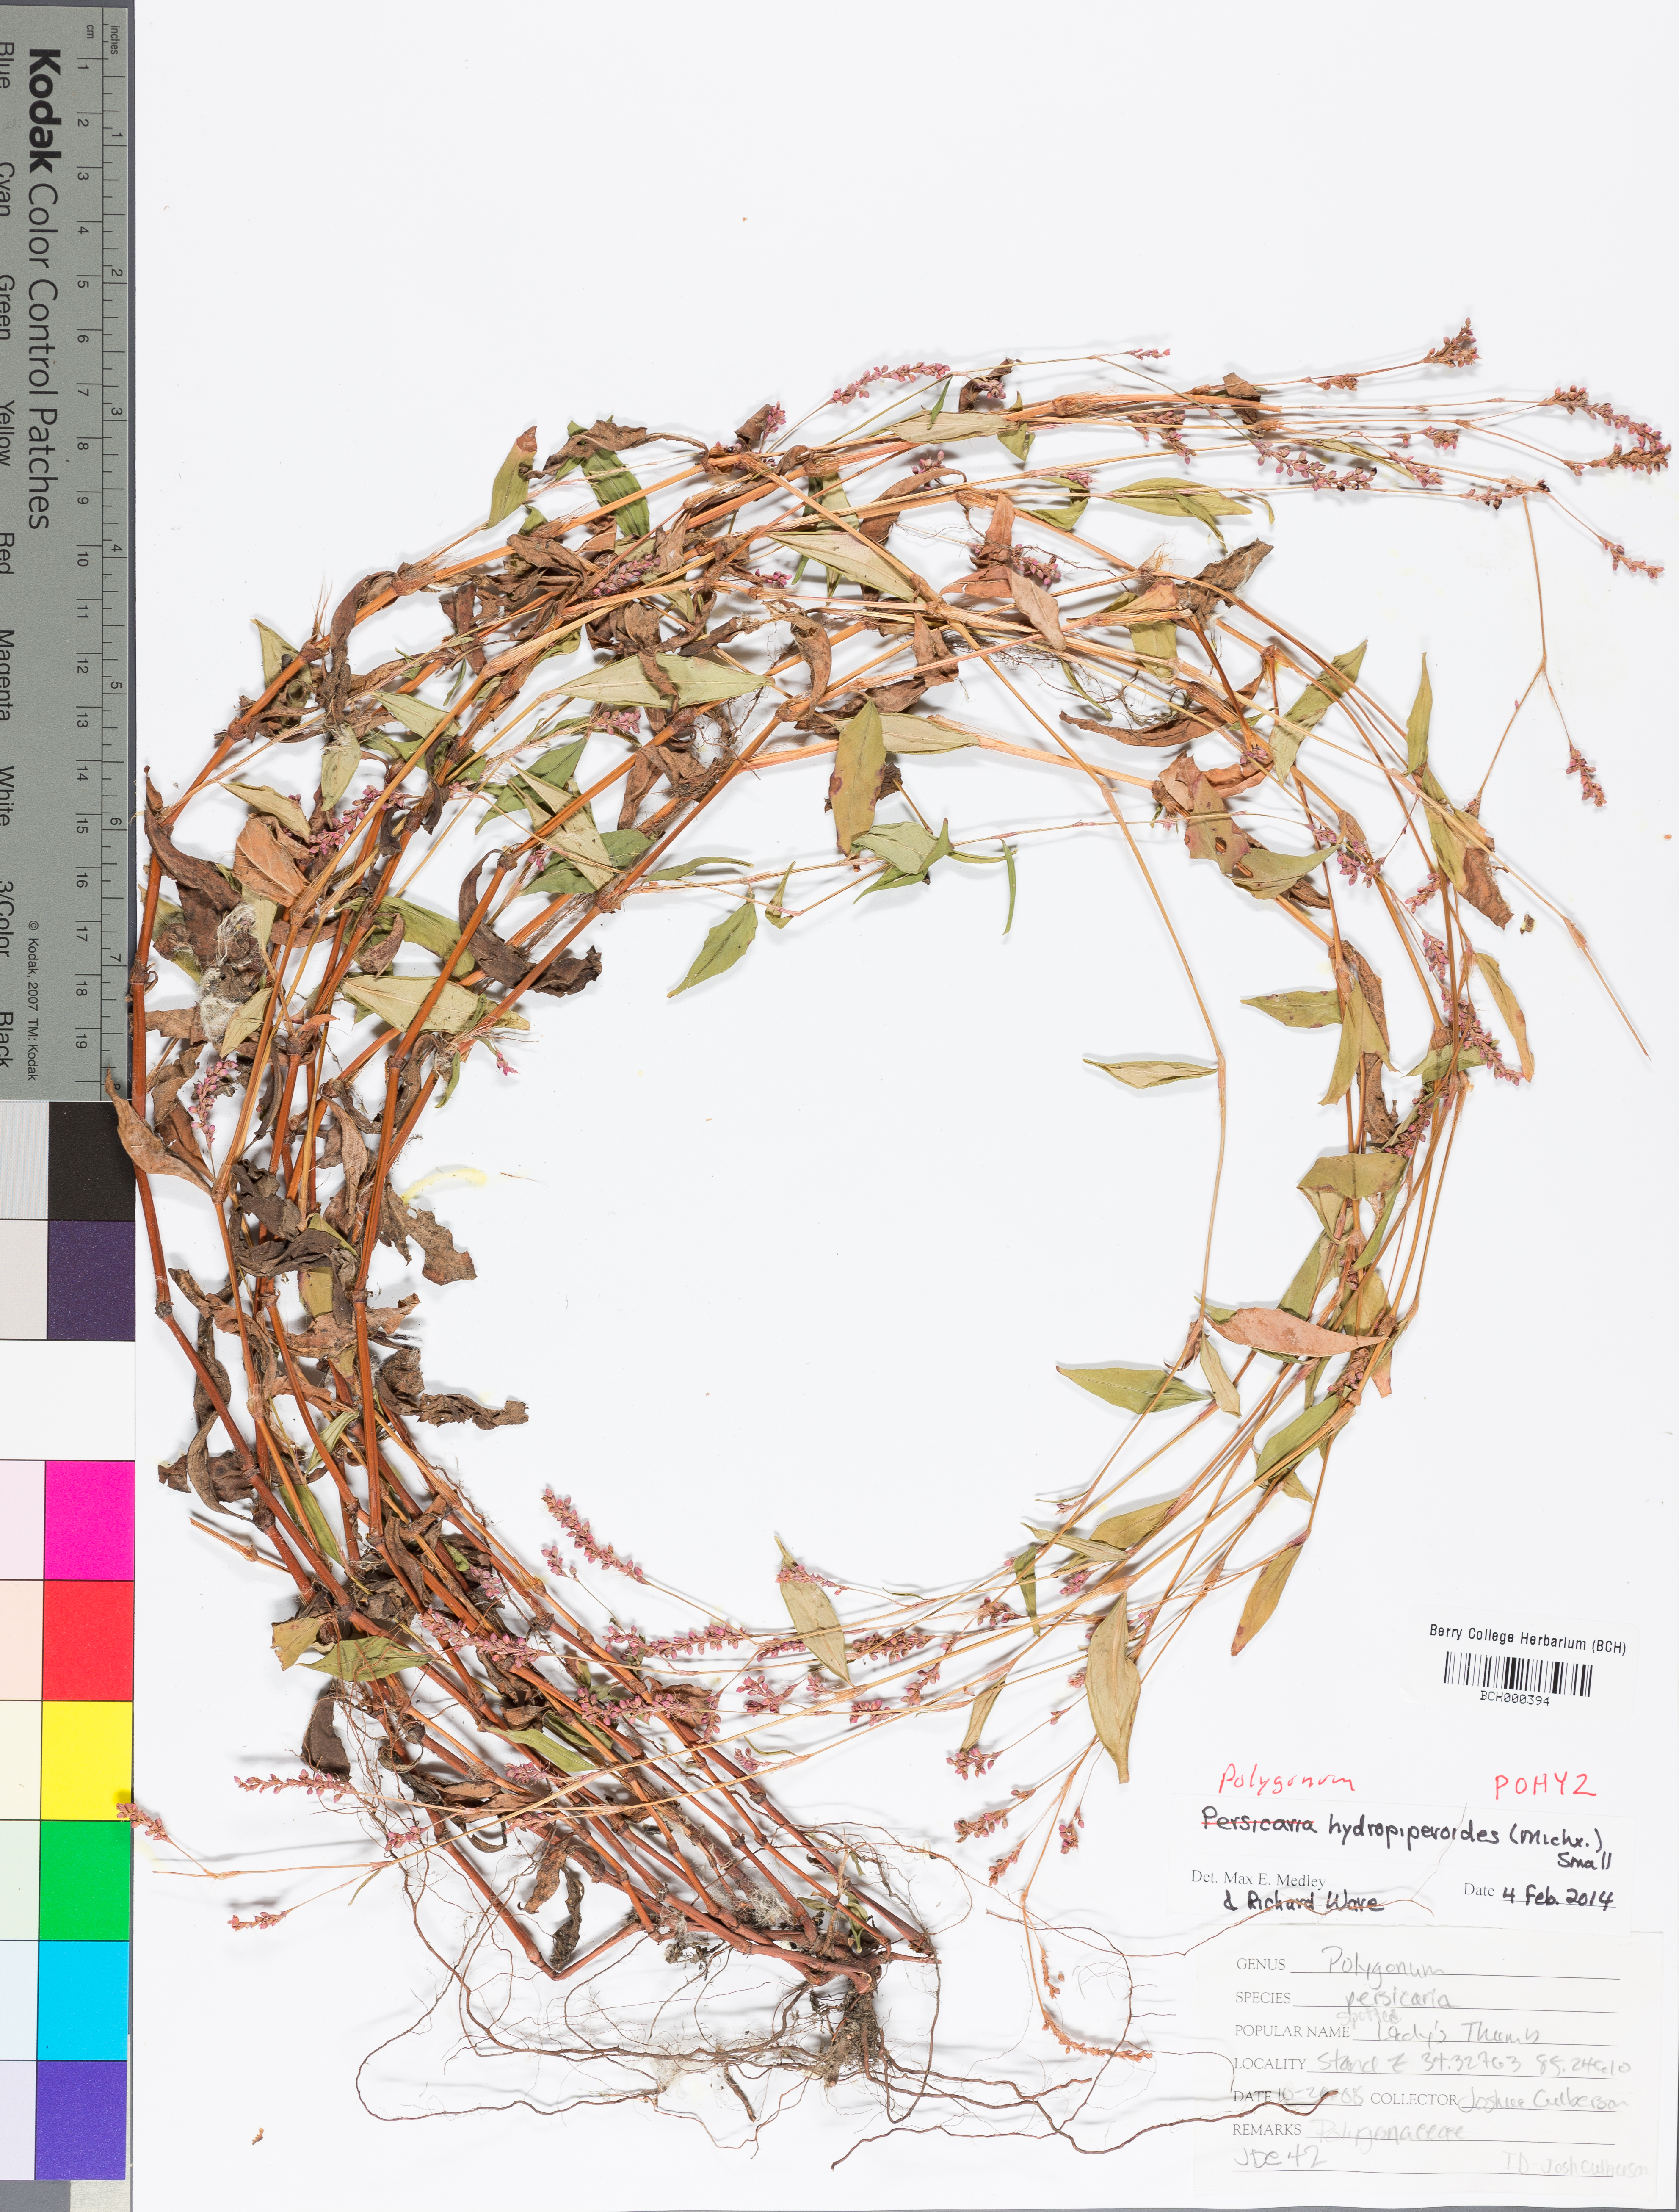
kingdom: Plantae
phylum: Tracheophyta
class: Magnoliopsida
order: Caryophyllales
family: Polygonaceae
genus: Persicaria
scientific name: Persicaria hydropiperoides
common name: Swamp smartweed
